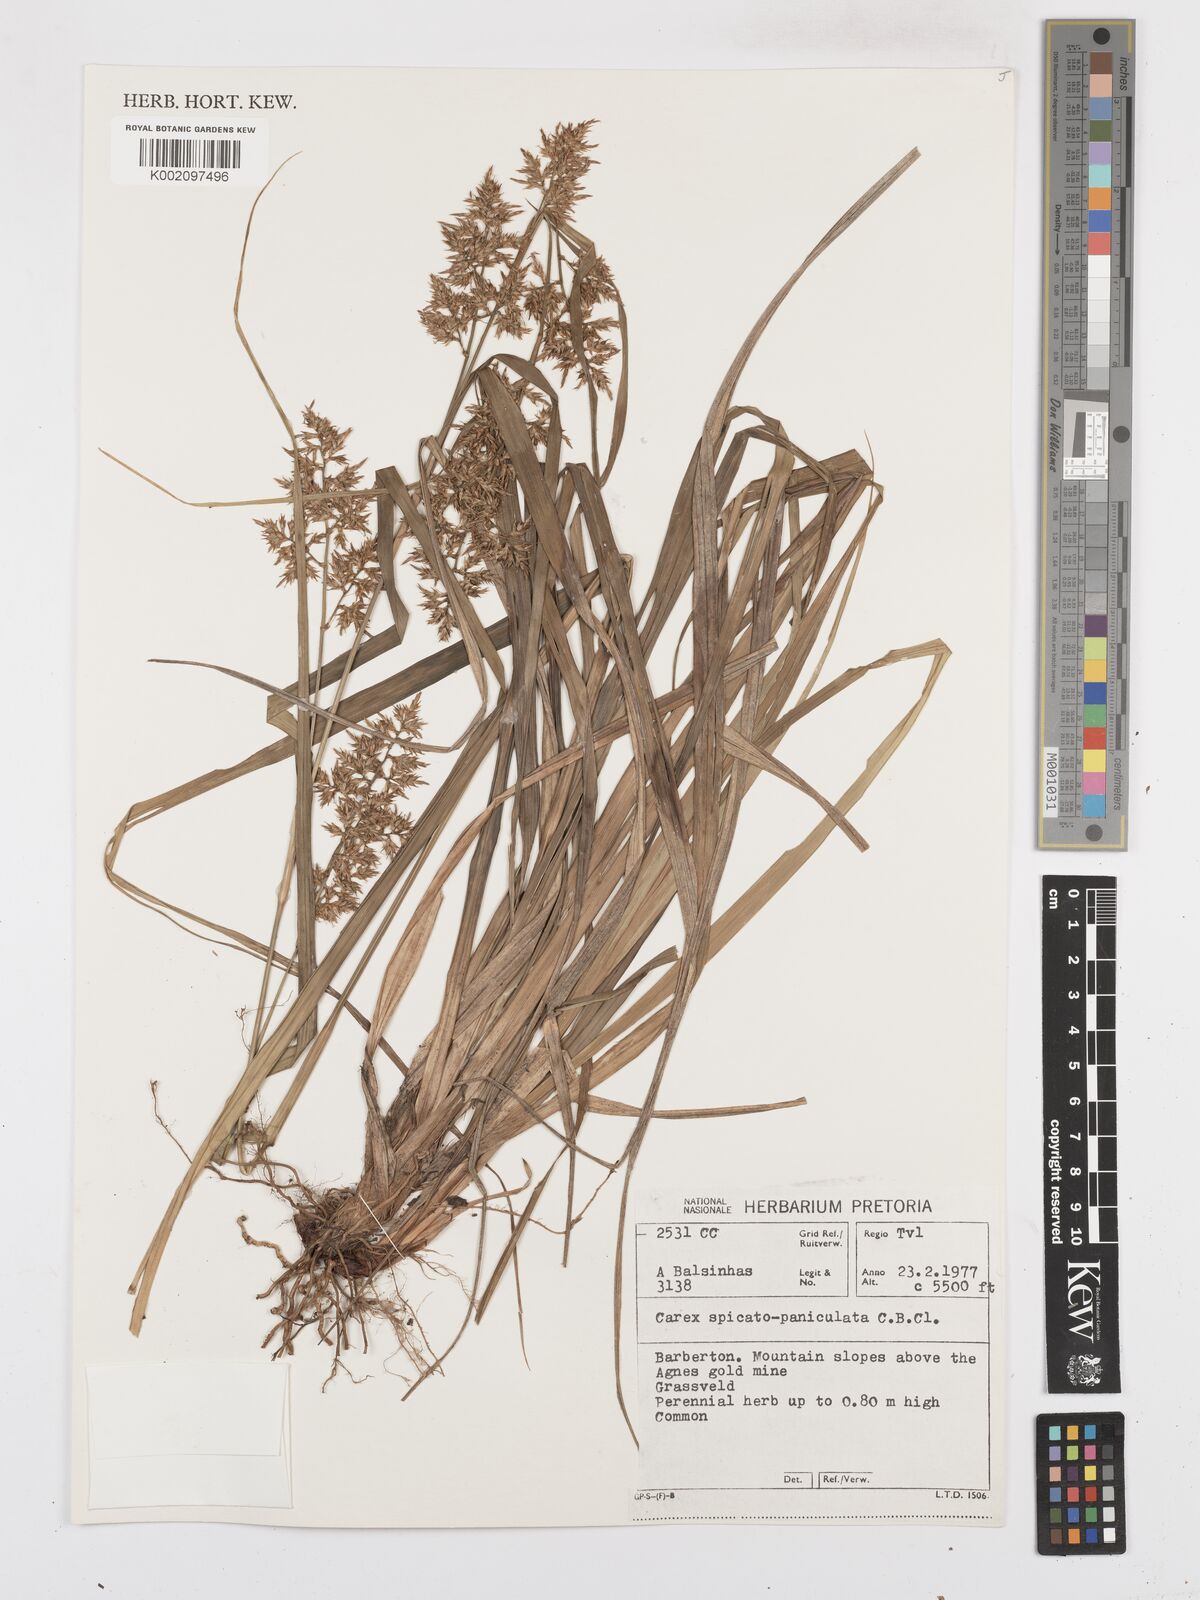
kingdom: Plantae
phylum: Tracheophyta
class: Liliopsida
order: Poales
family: Cyperaceae
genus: Carex
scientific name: Carex spicatopaniculata
